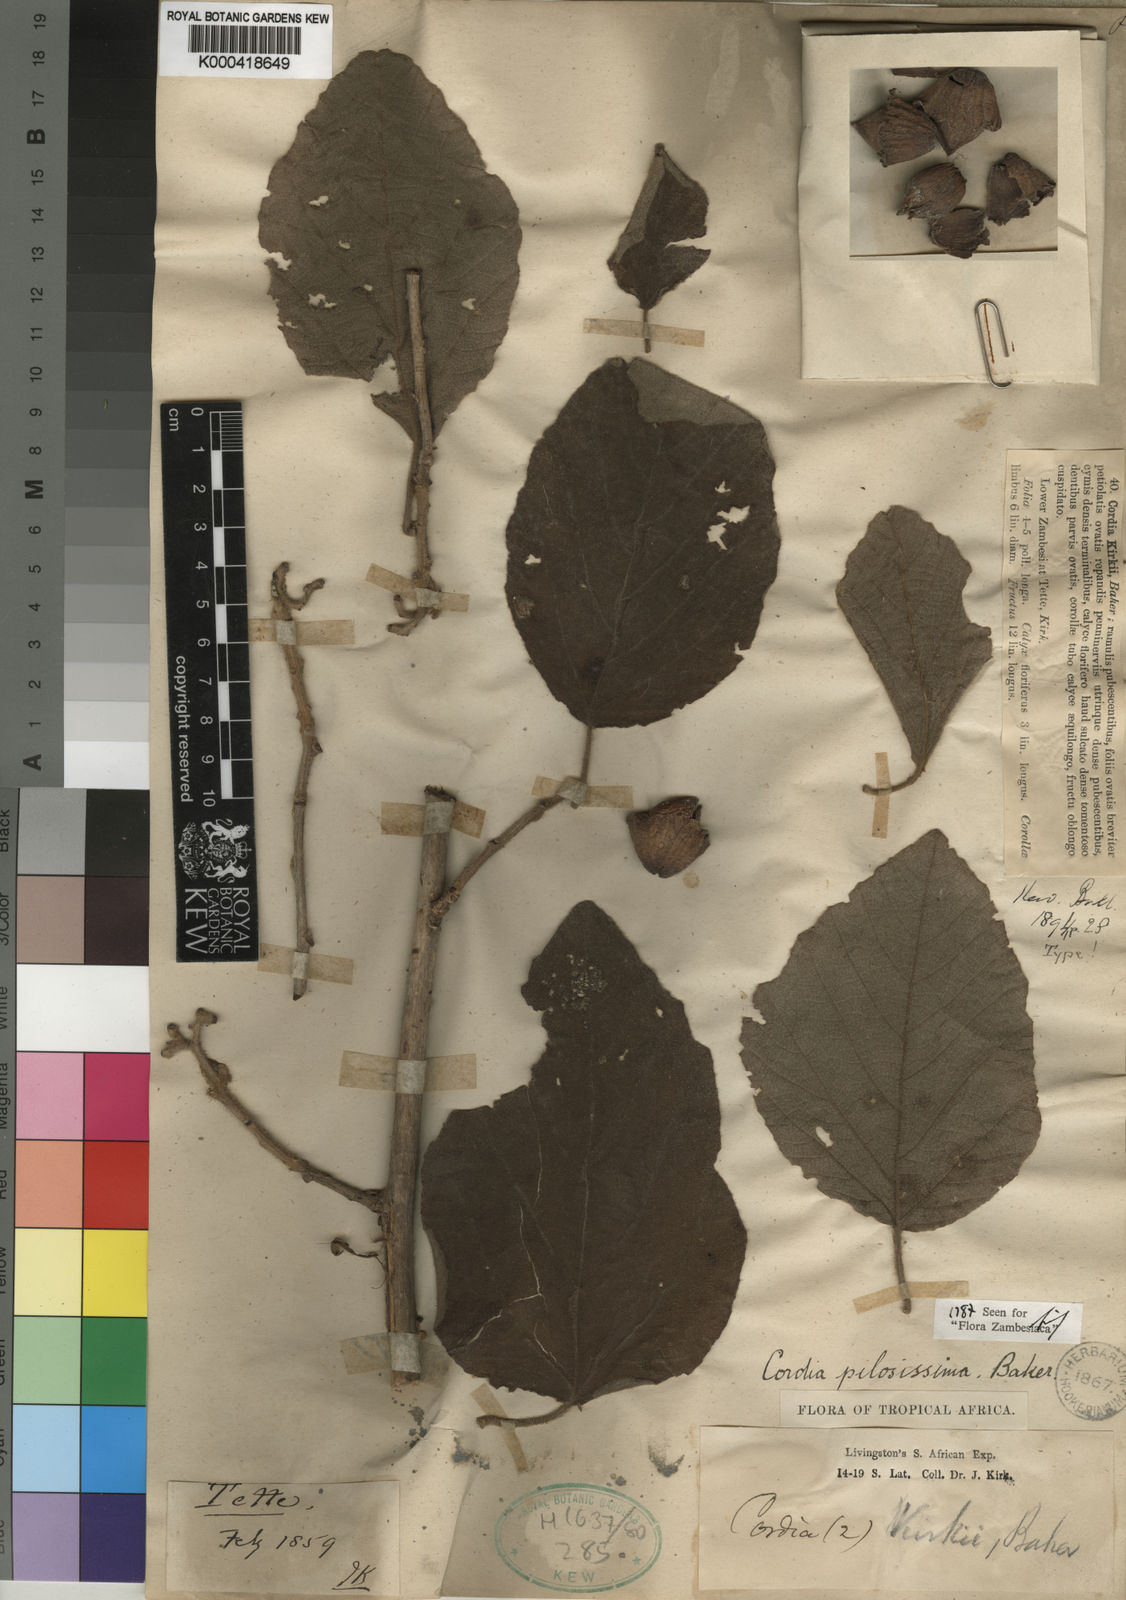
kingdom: Plantae
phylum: Tracheophyta
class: Magnoliopsida
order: Boraginales
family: Cordiaceae
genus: Cordia
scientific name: Cordia pilosissima
